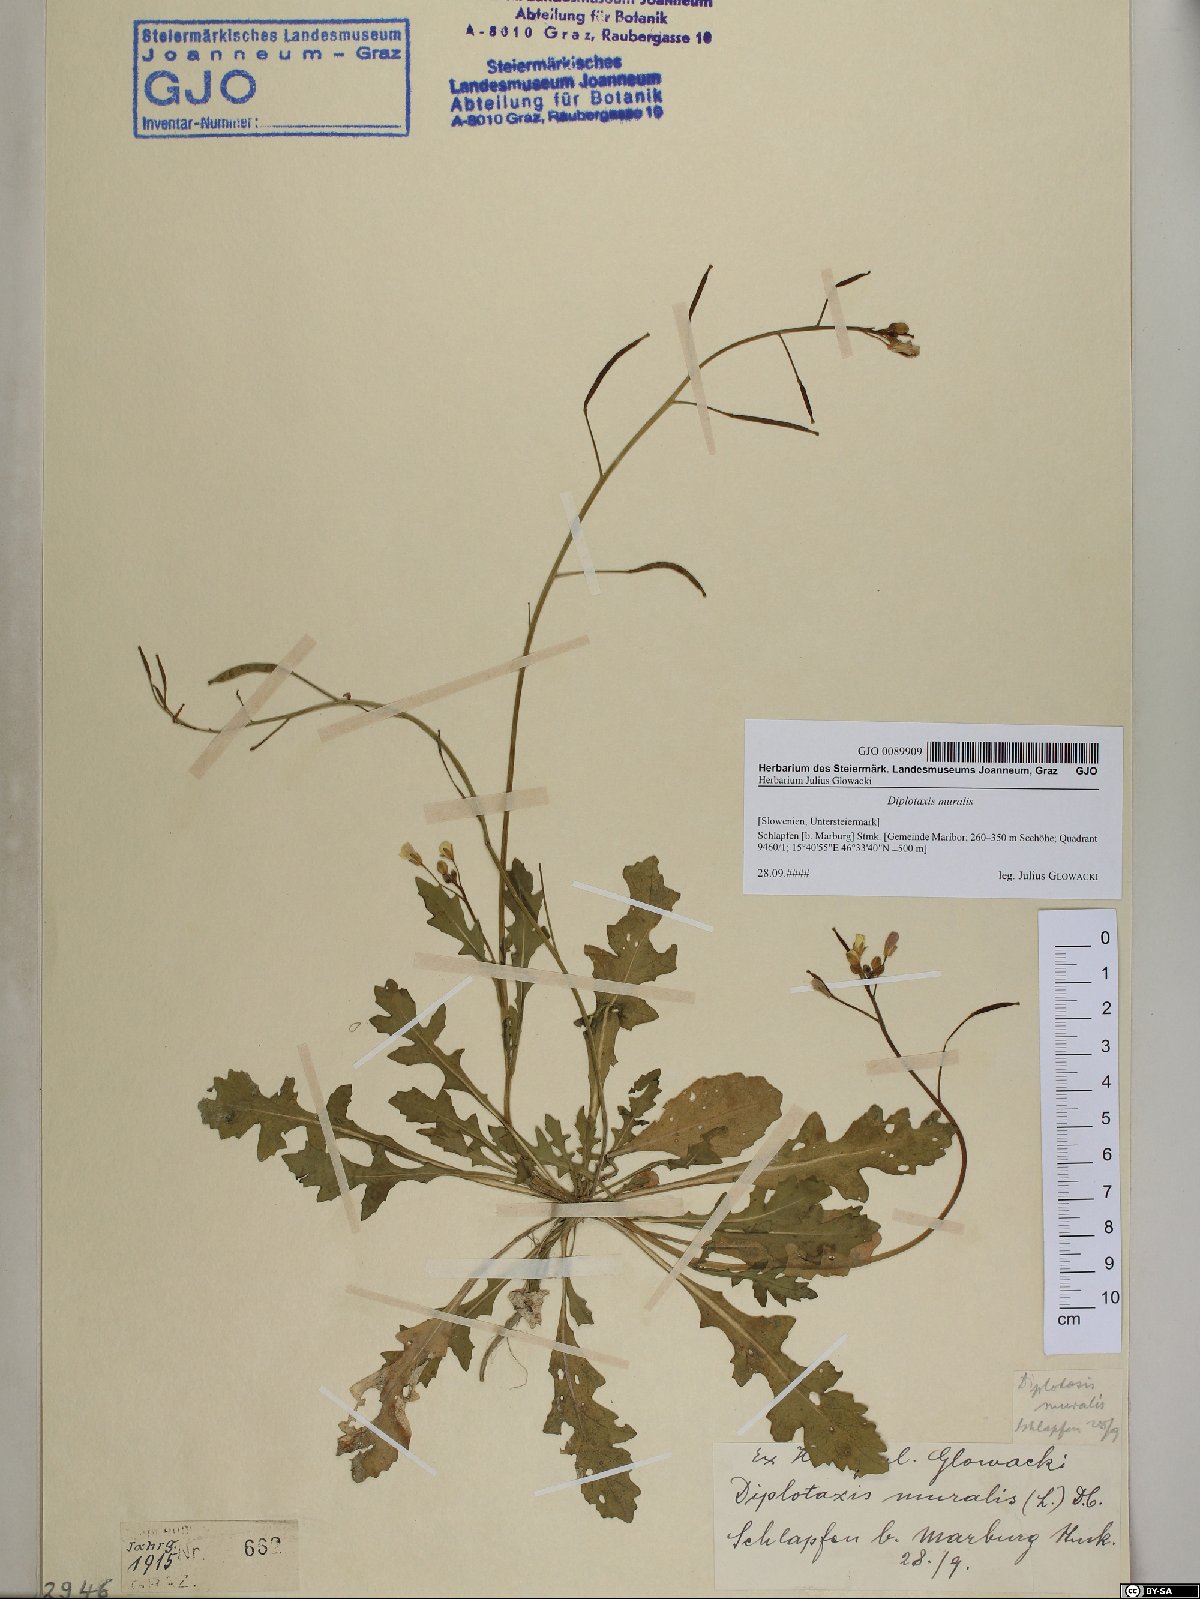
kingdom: Plantae
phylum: Tracheophyta
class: Magnoliopsida
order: Brassicales
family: Brassicaceae
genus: Diplotaxis
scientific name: Diplotaxis muralis
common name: Annual wall-rocket
